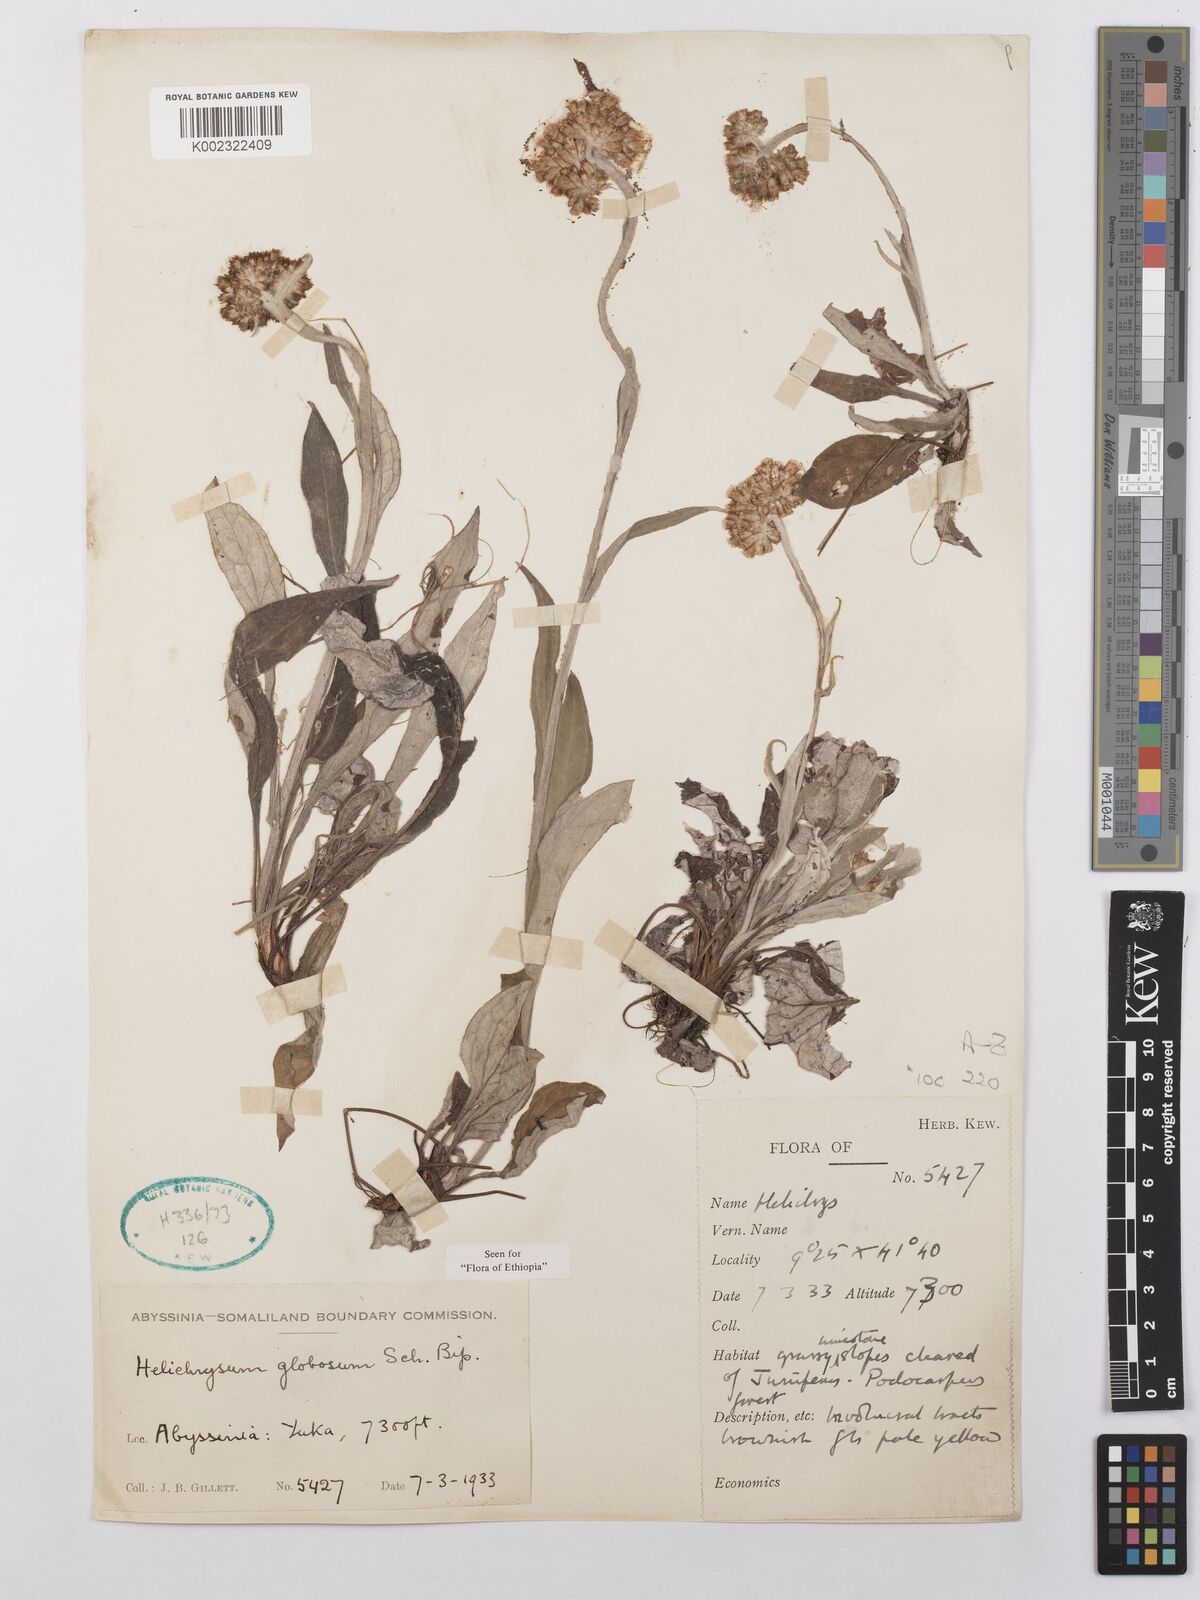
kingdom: Plantae
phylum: Tracheophyta
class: Magnoliopsida
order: Asterales
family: Asteraceae
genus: Helichrysum
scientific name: Helichrysum globosum
